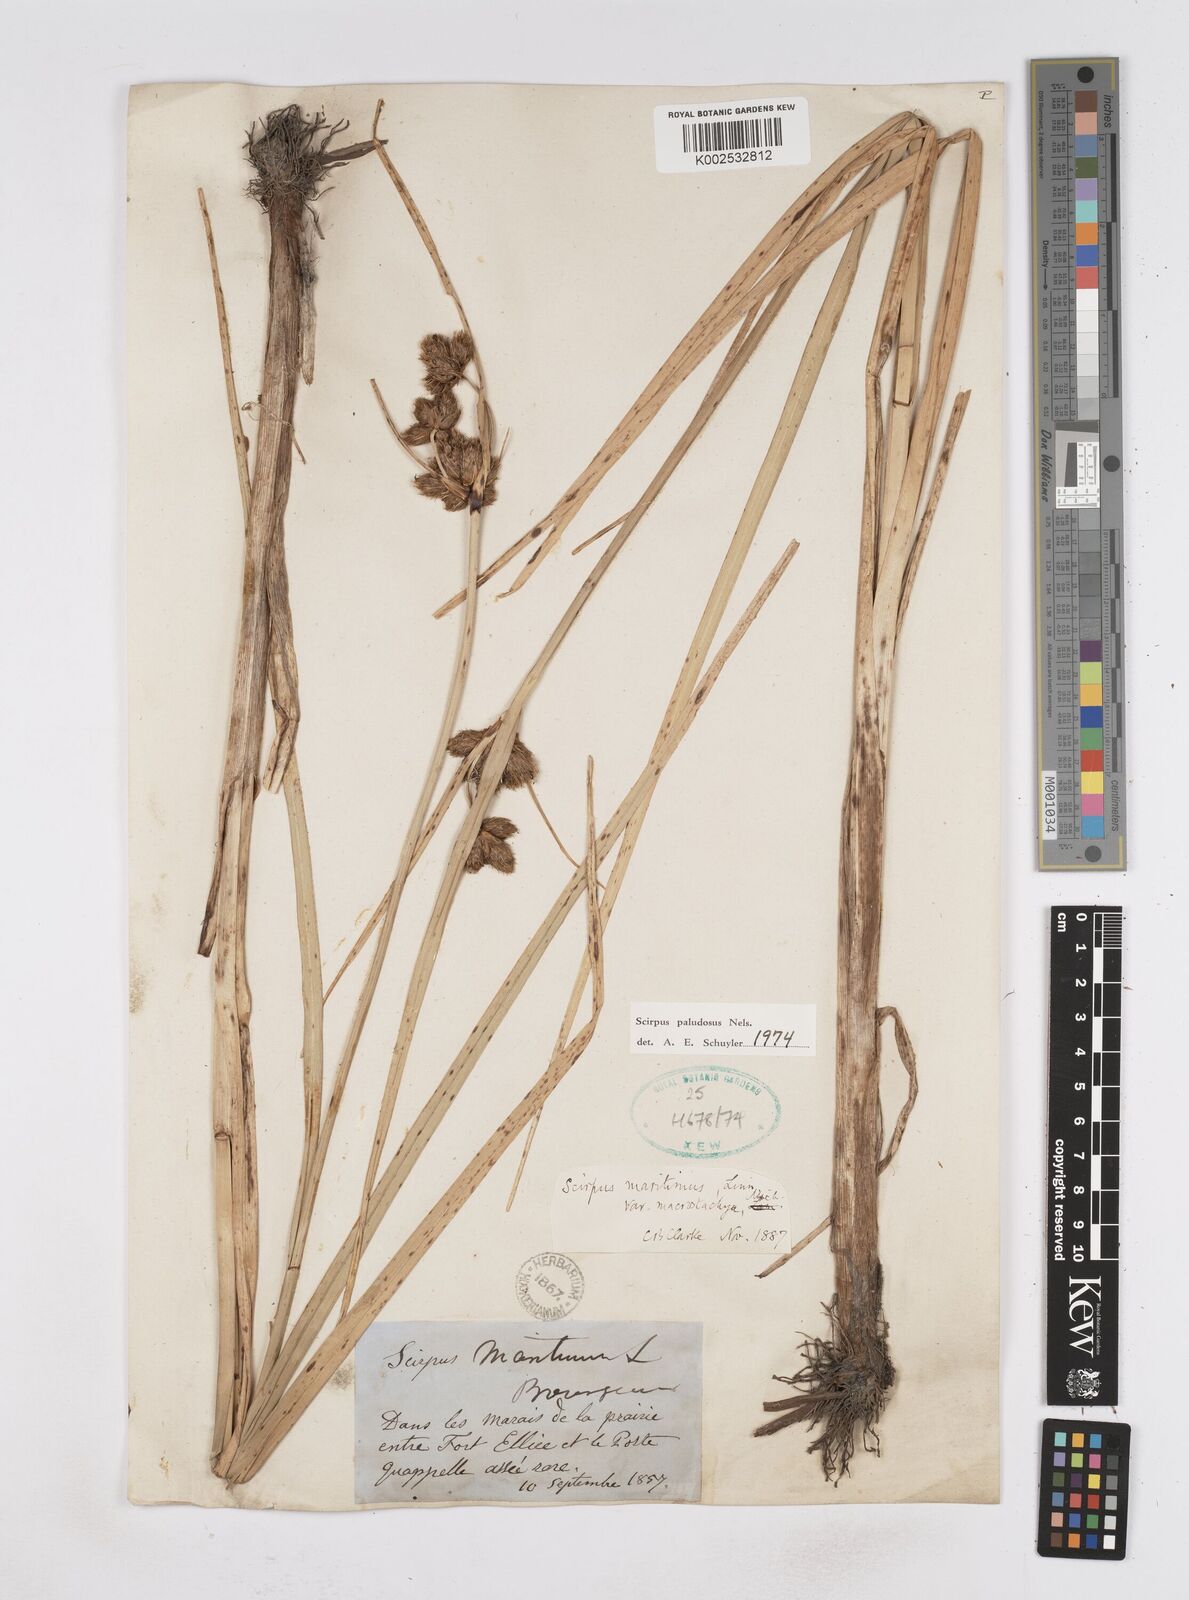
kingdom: Plantae
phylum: Tracheophyta
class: Liliopsida
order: Poales
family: Cyperaceae
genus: Bolboschoenus
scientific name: Bolboschoenus maritimus
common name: Sea club-rush
